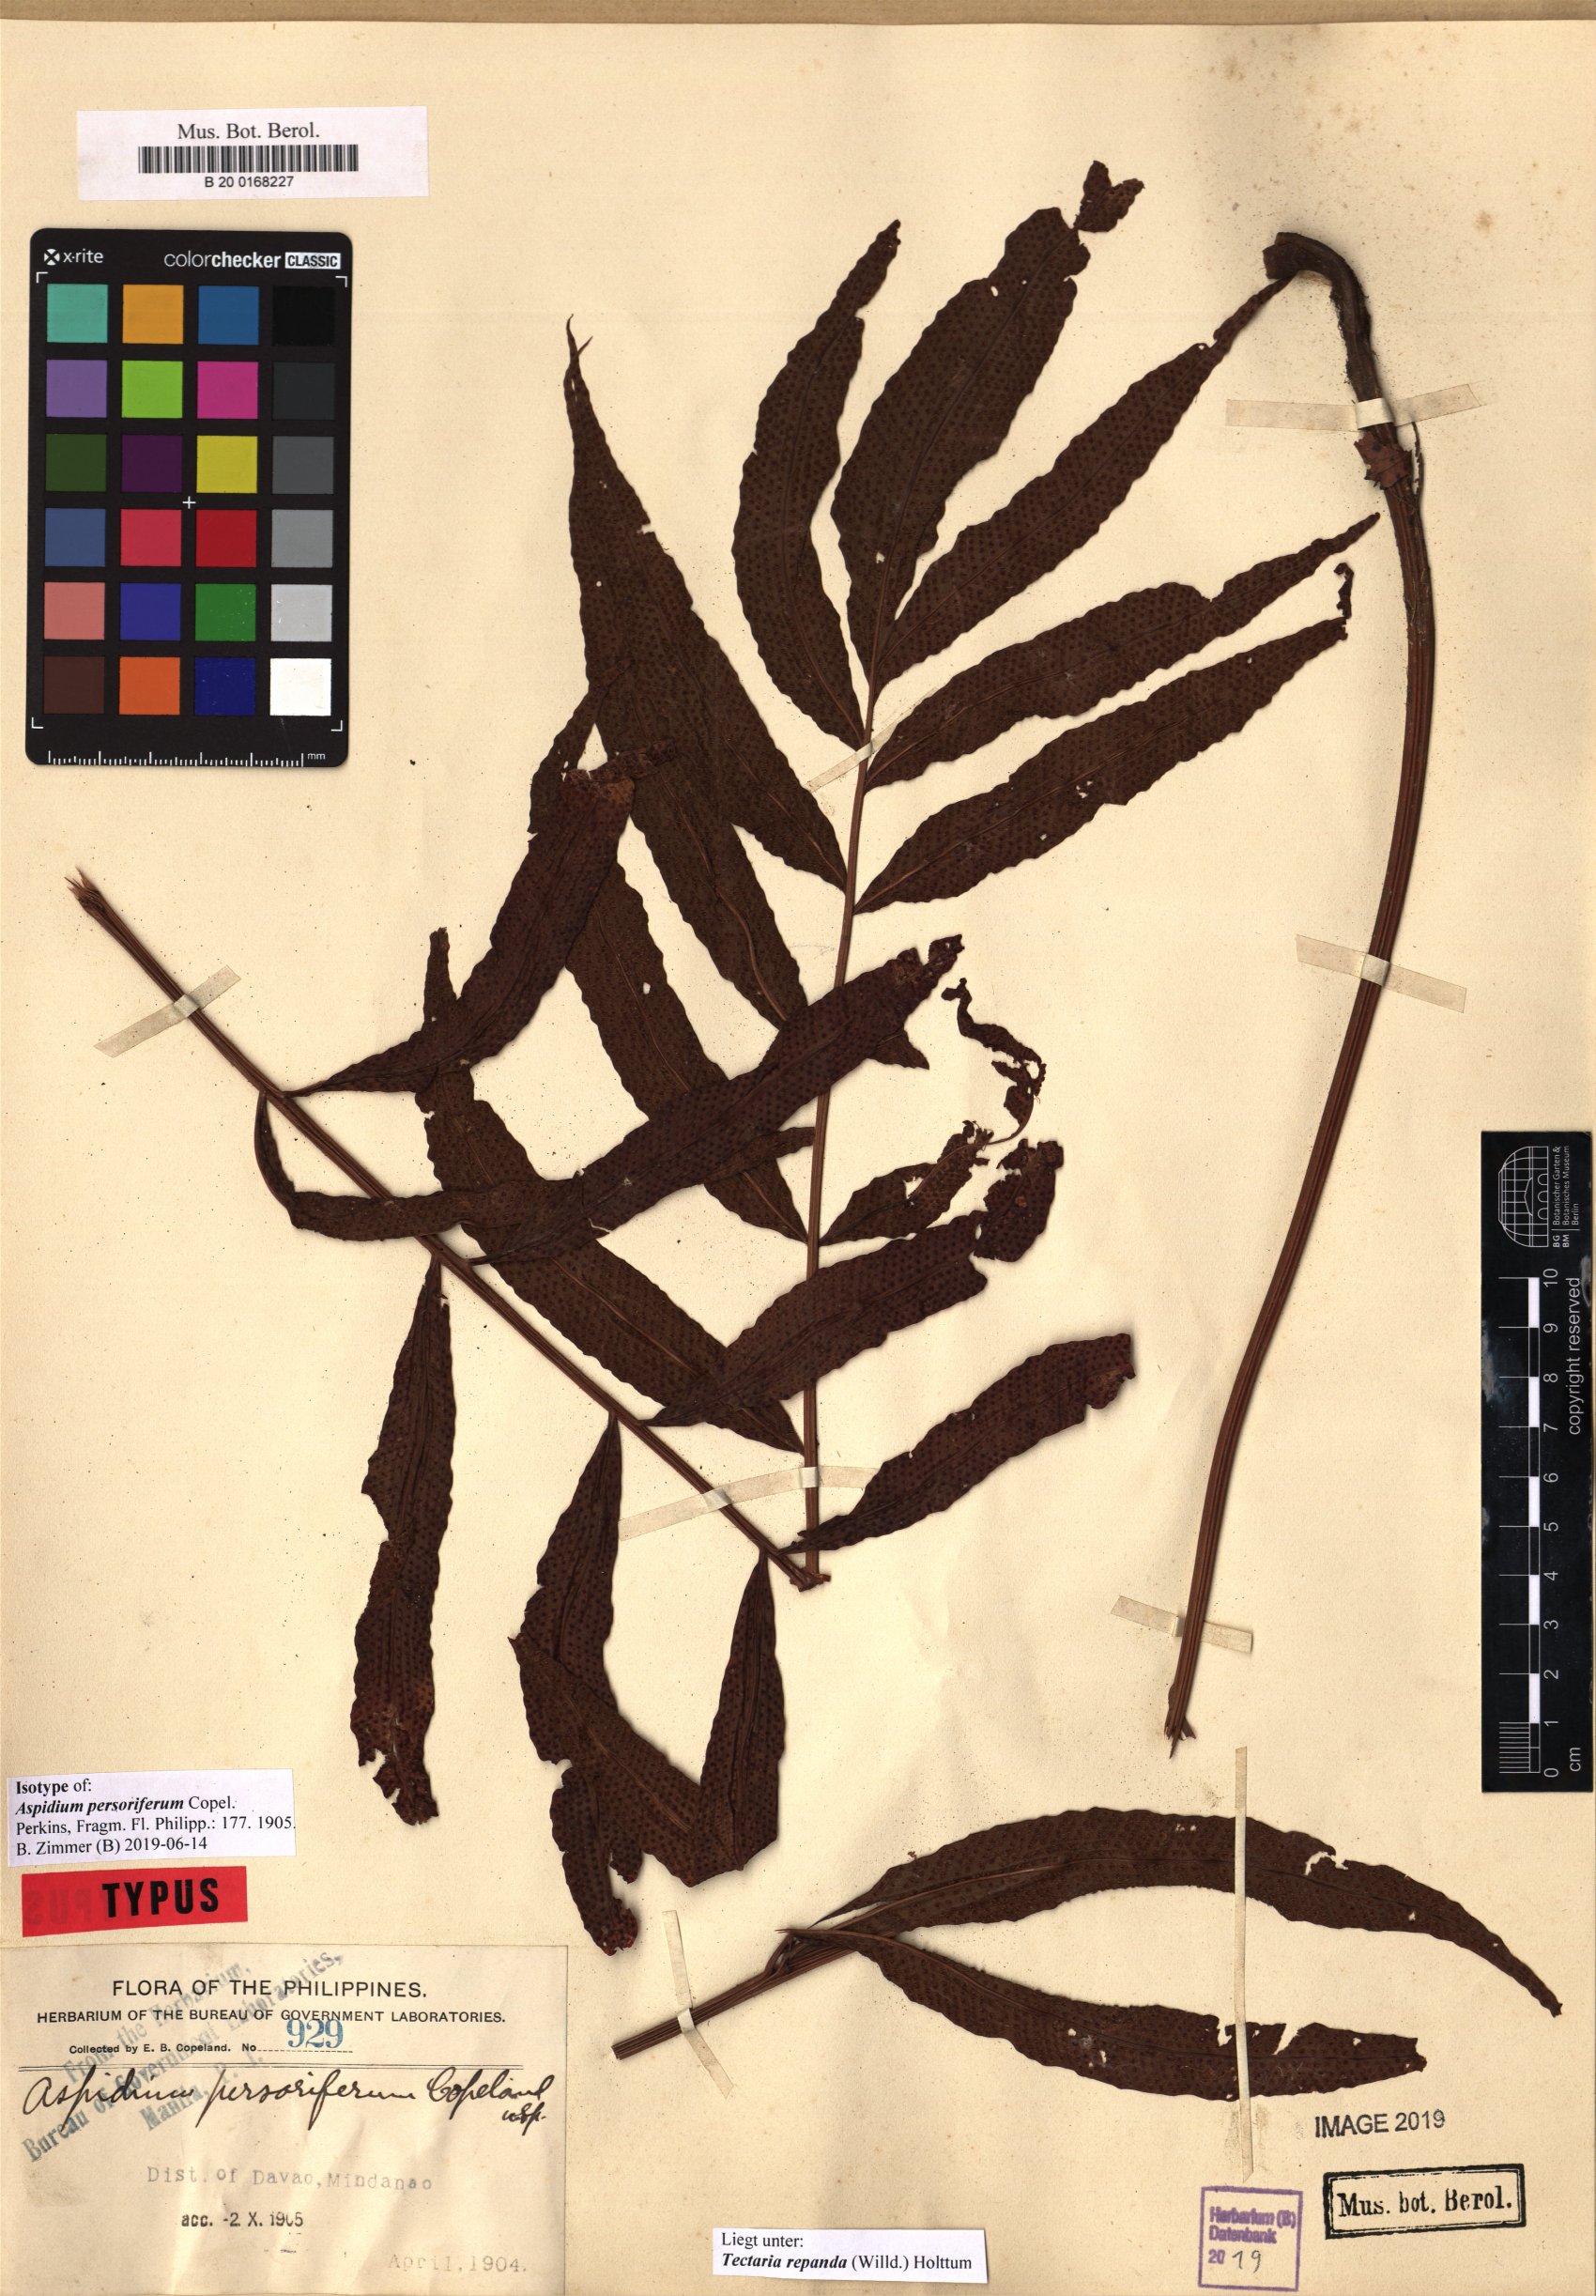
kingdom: Plantae
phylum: Tracheophyta
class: Polypodiopsida
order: Polypodiales
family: Tectariaceae
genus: Tectaria
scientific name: Tectaria repanda
